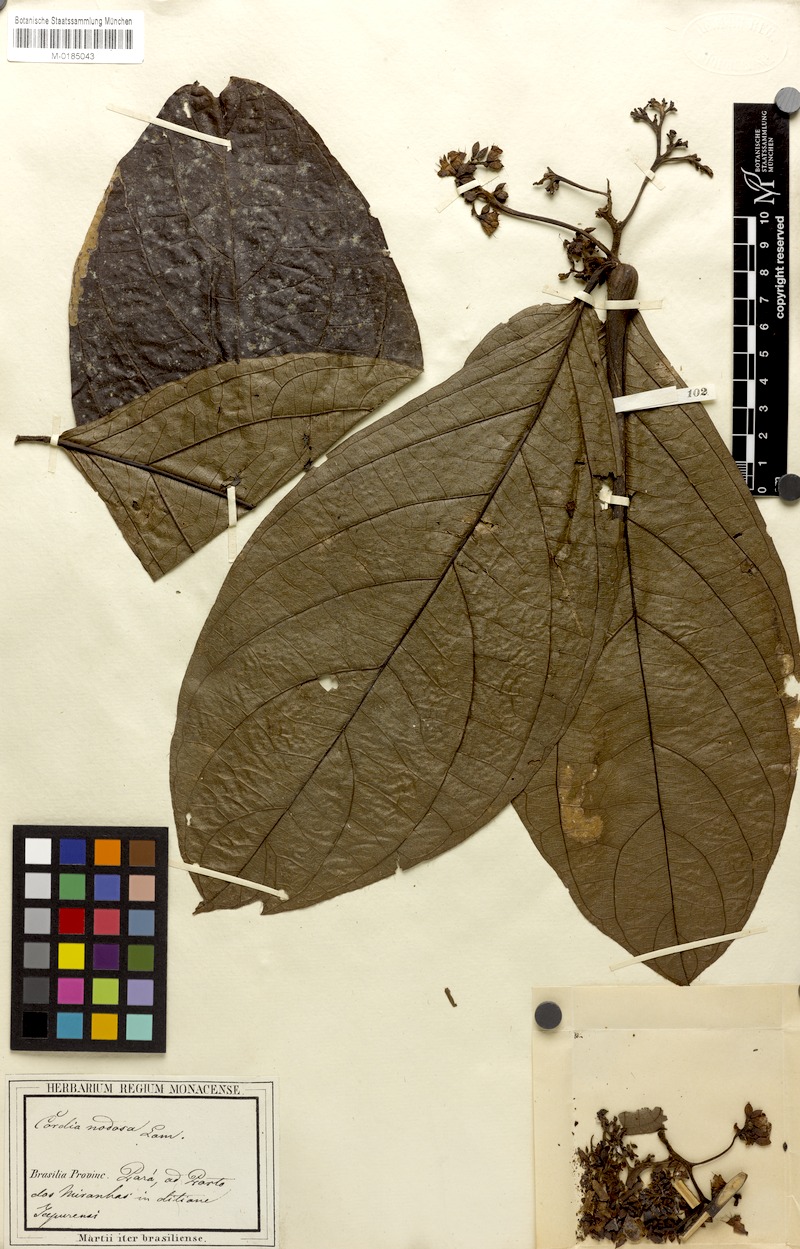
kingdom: Plantae
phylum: Tracheophyta
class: Magnoliopsida
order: Boraginales
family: Cordiaceae
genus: Cordia
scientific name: Cordia nodosa
